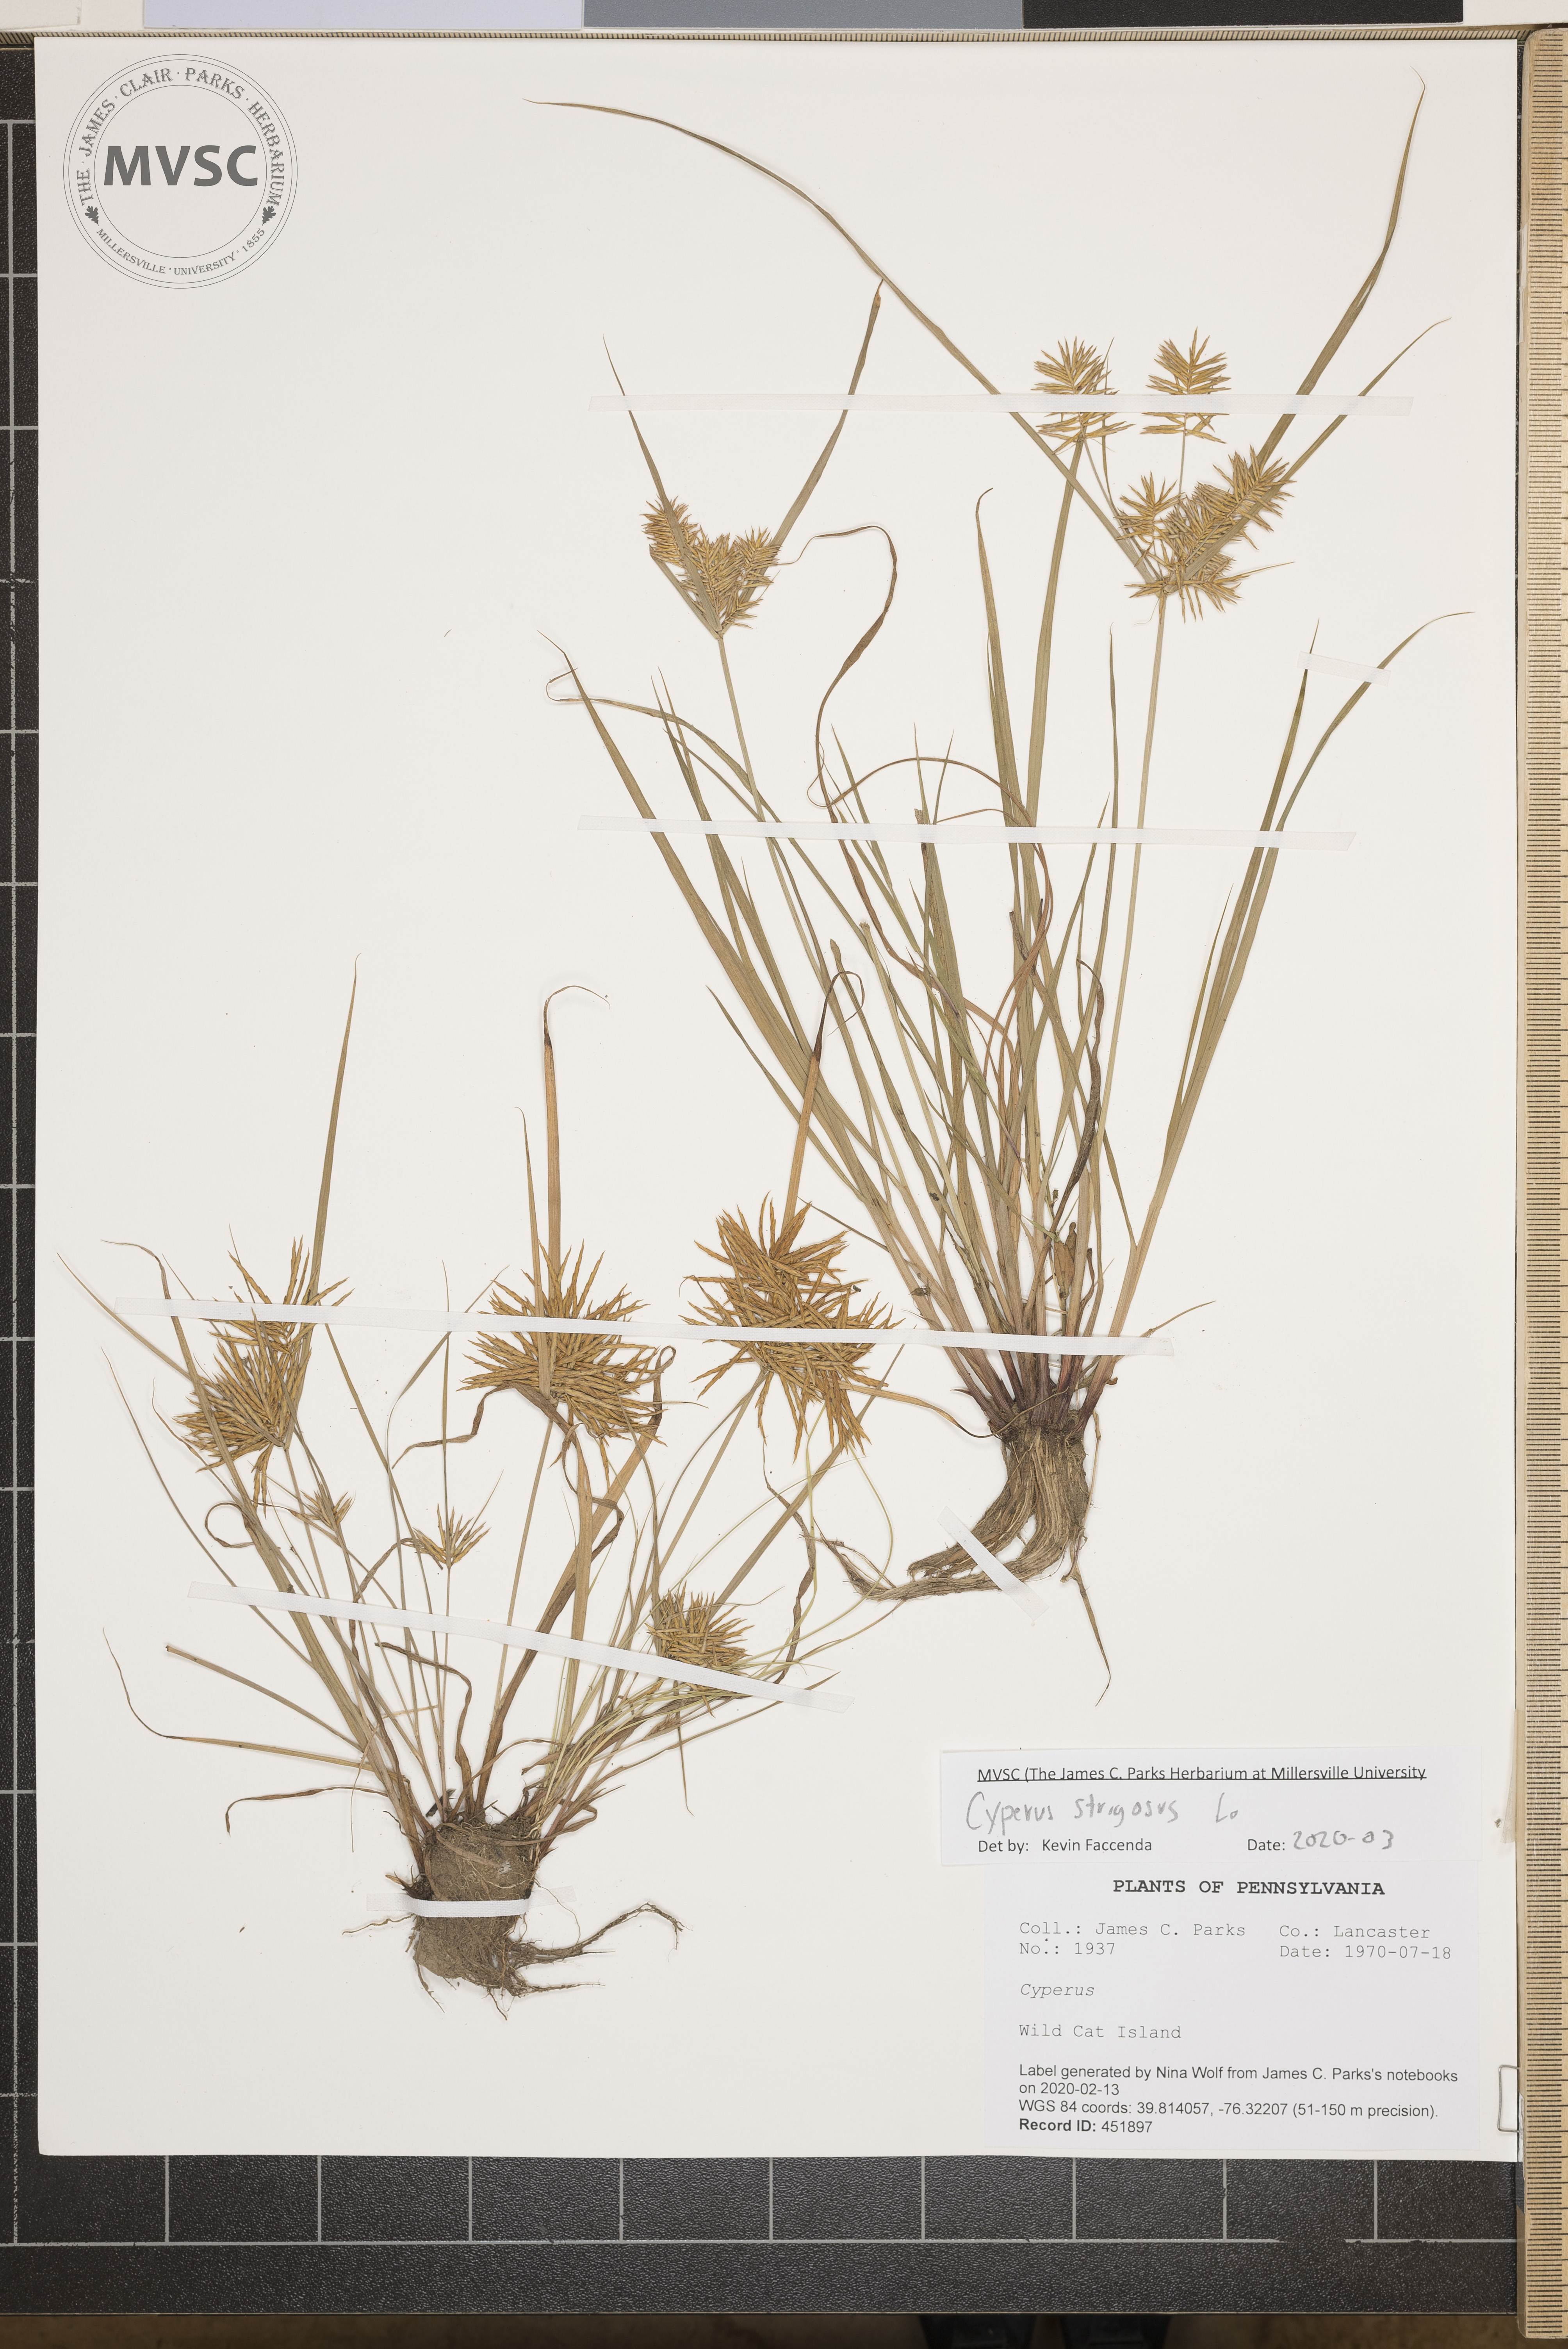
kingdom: Plantae
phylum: Tracheophyta
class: Liliopsida
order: Poales
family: Cyperaceae
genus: Cyperus
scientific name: Cyperus strigosus
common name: False nutsedge
